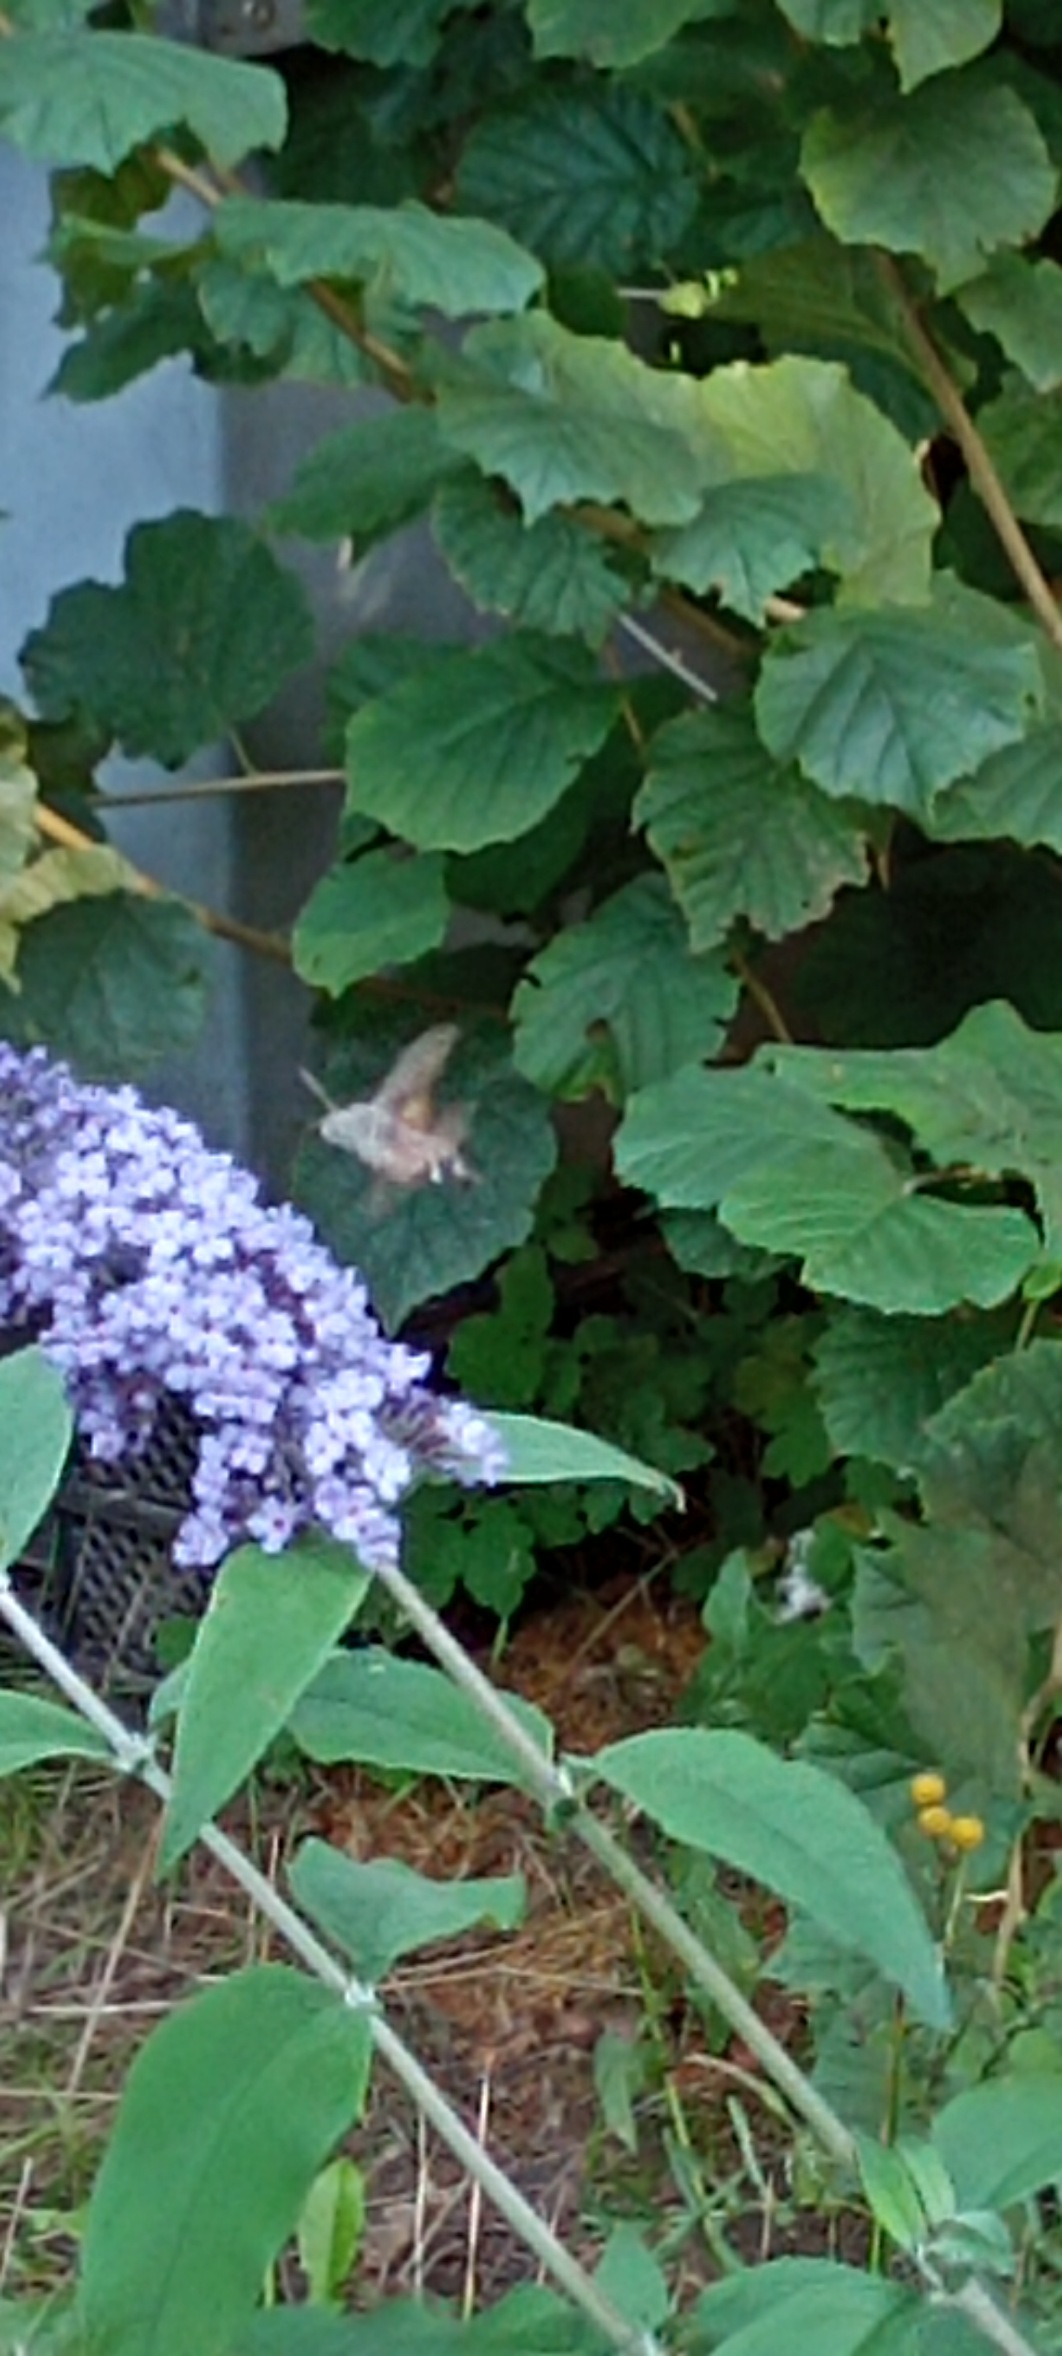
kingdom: Animalia
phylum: Arthropoda
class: Insecta
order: Lepidoptera
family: Sphingidae
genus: Macroglossum
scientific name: Macroglossum stellatarum
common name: Duehale
